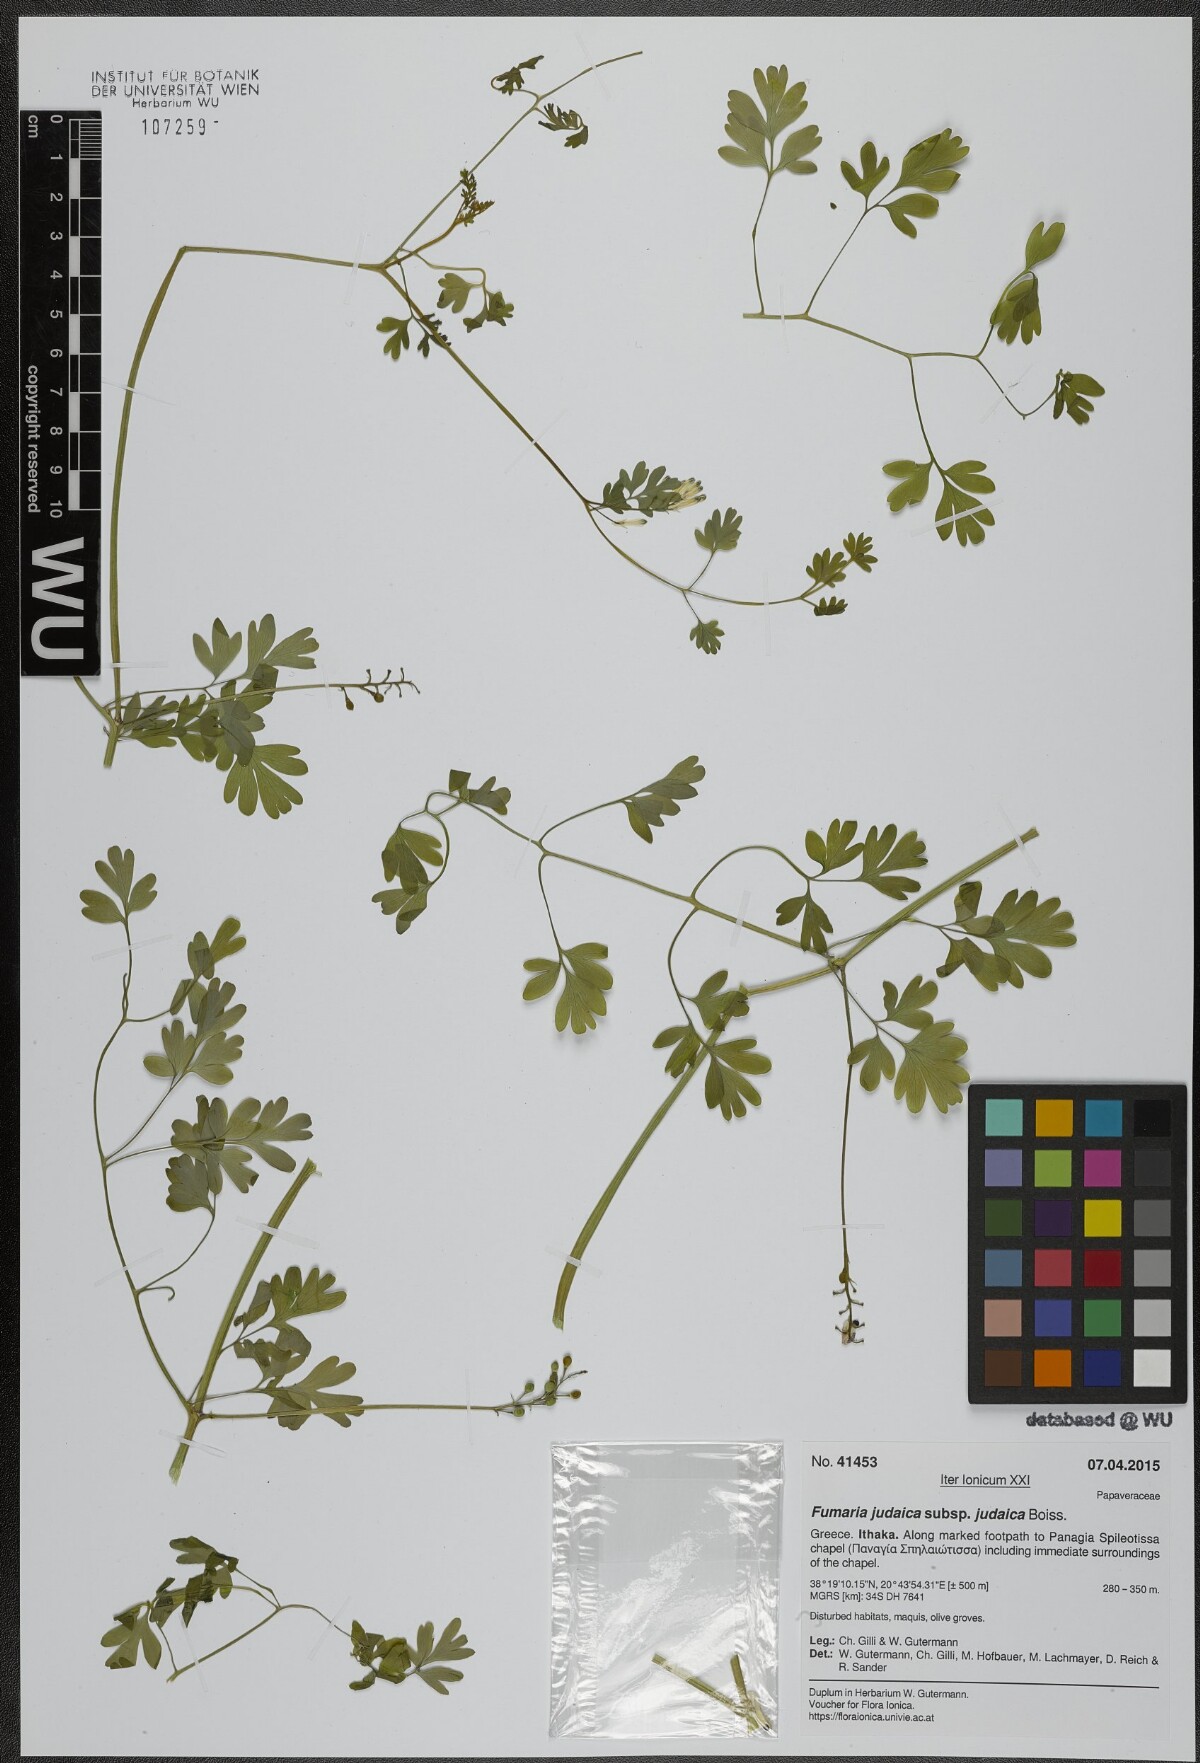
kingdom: Plantae
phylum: Tracheophyta
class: Magnoliopsida
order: Ranunculales
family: Papaveraceae
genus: Fumaria
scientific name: Fumaria judaica
